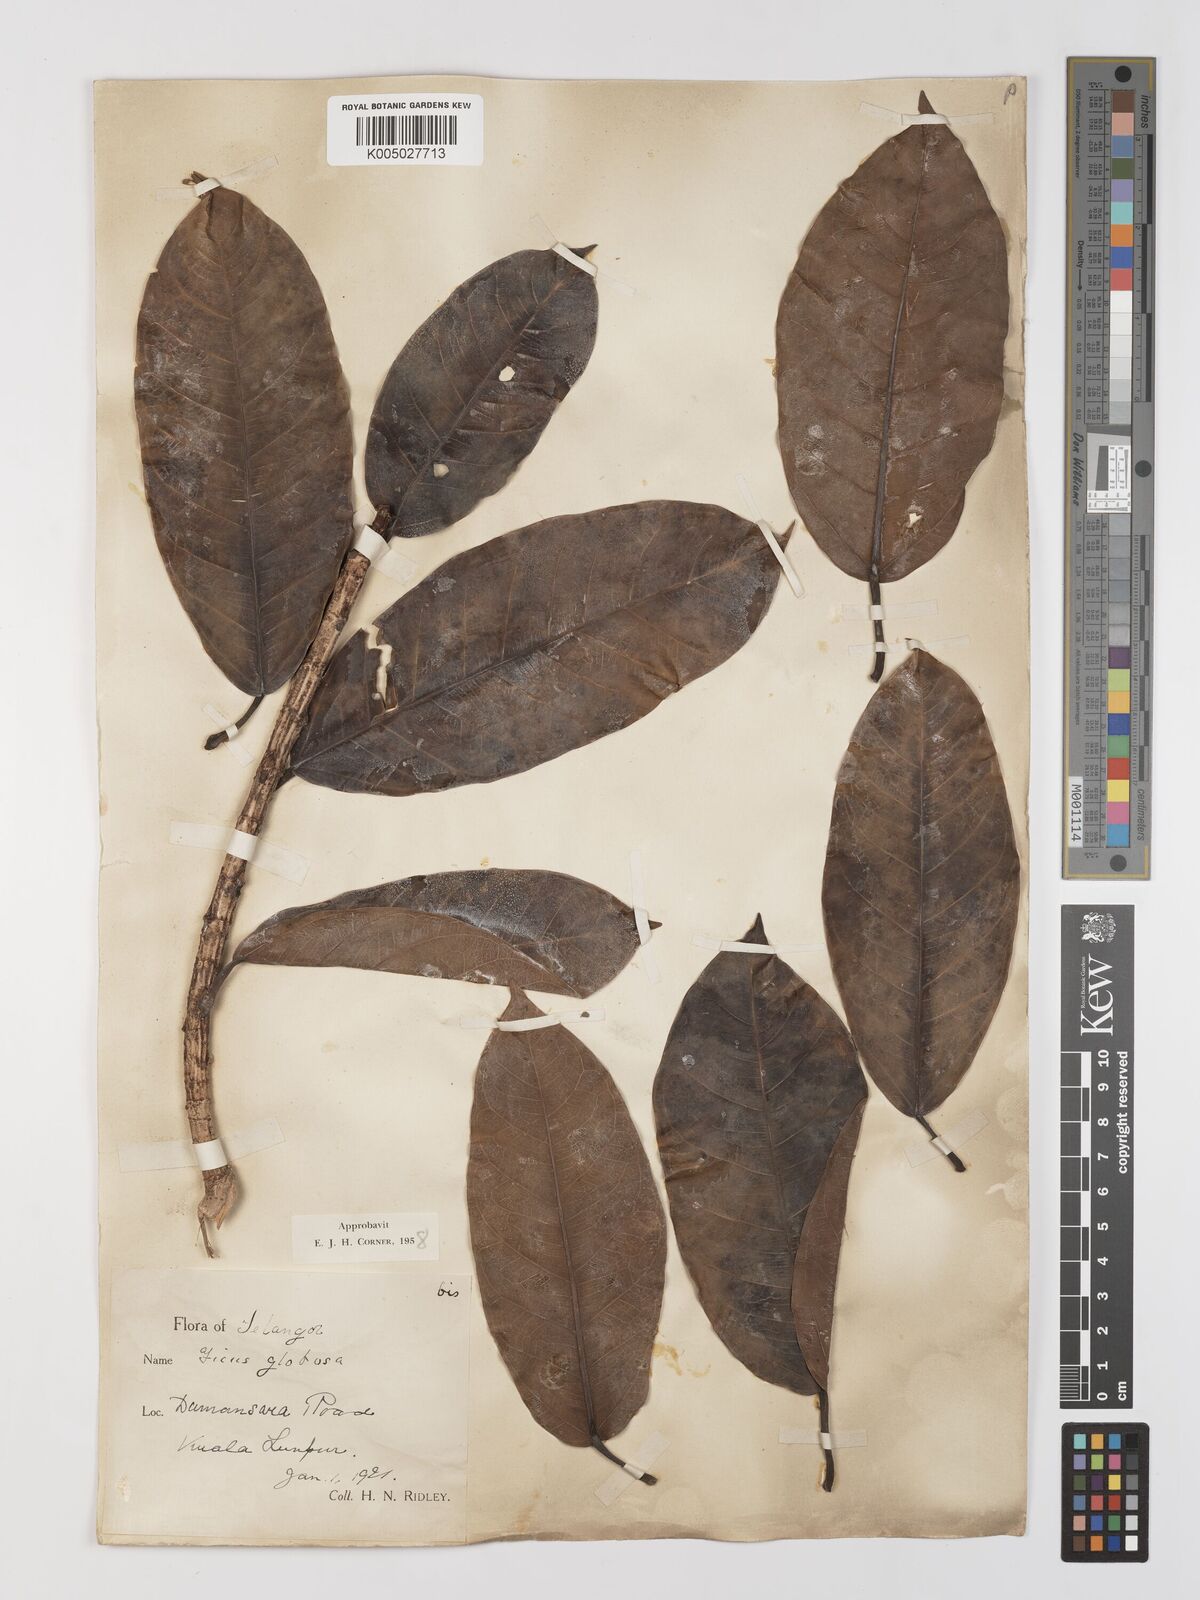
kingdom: Plantae
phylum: Tracheophyta
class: Magnoliopsida
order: Rosales
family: Moraceae
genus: Ficus
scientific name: Ficus
